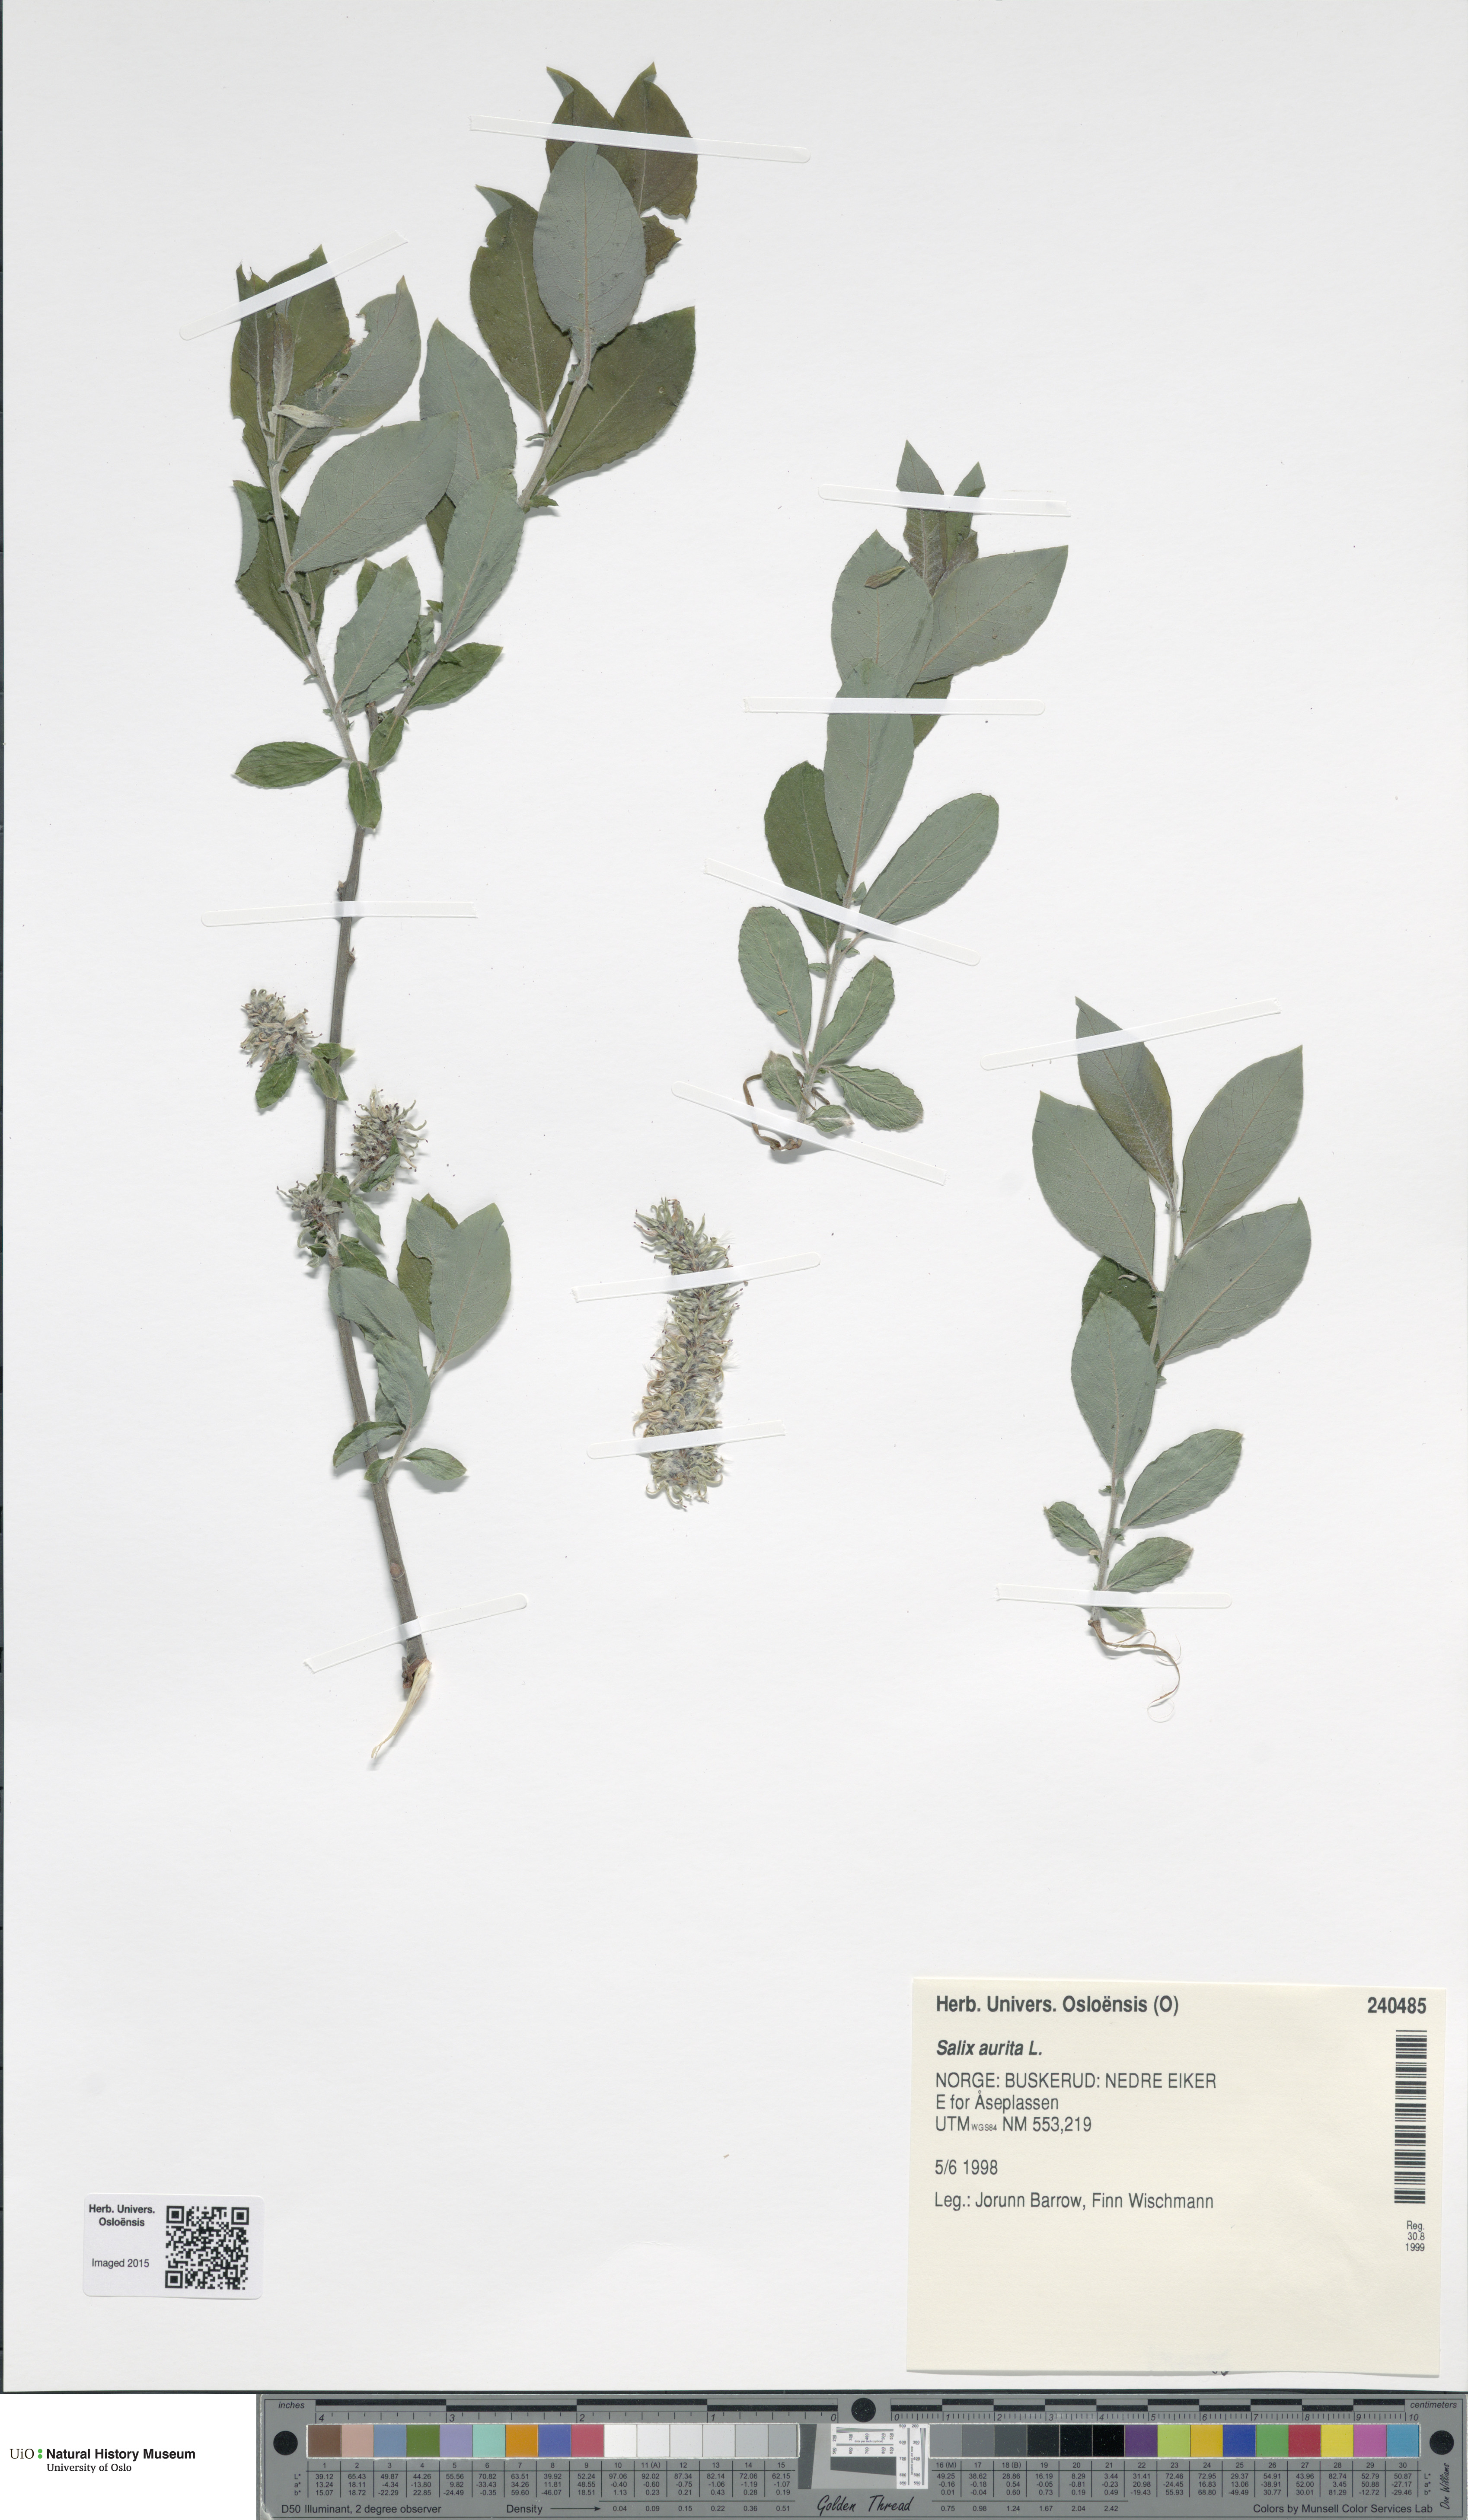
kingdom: Plantae
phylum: Tracheophyta
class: Magnoliopsida
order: Malpighiales
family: Salicaceae
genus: Salix
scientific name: Salix aurita
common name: Eared willow
